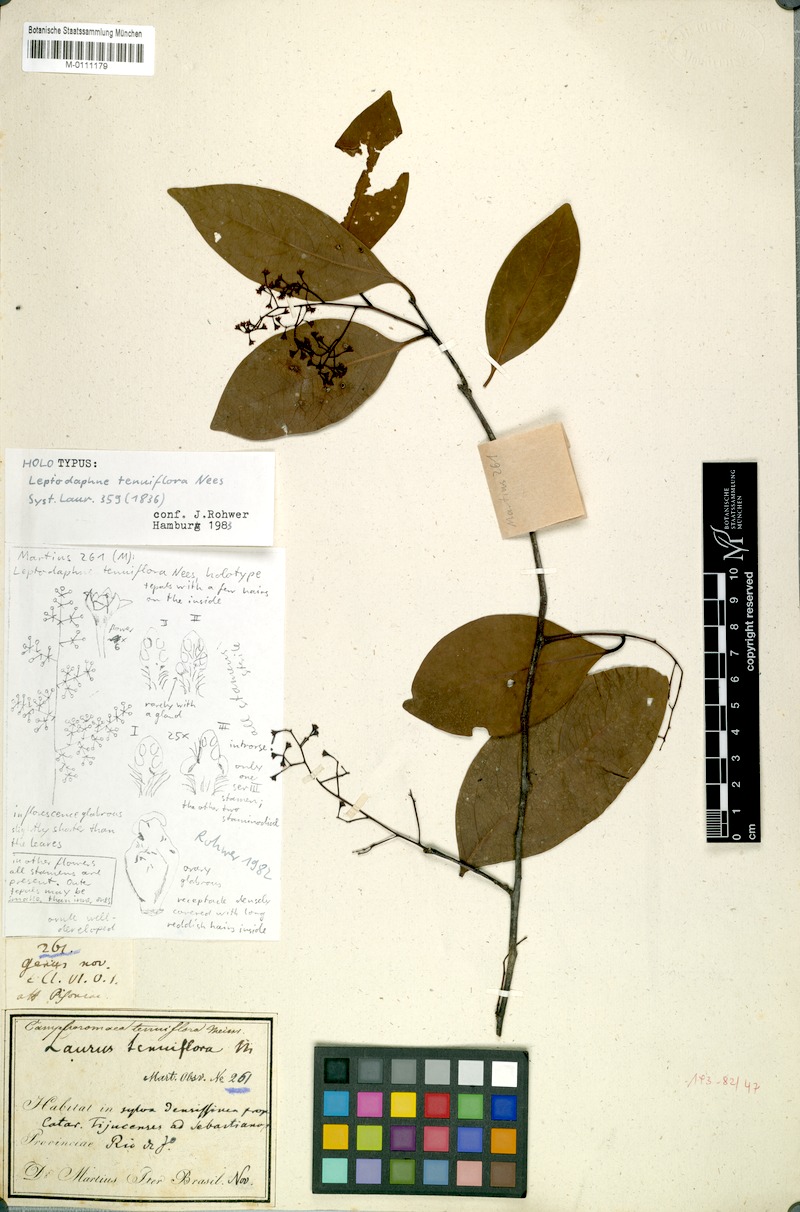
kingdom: Plantae
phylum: Tracheophyta
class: Magnoliopsida
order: Laurales
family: Lauraceae
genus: Ocotea
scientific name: Ocotea tenuiflora
